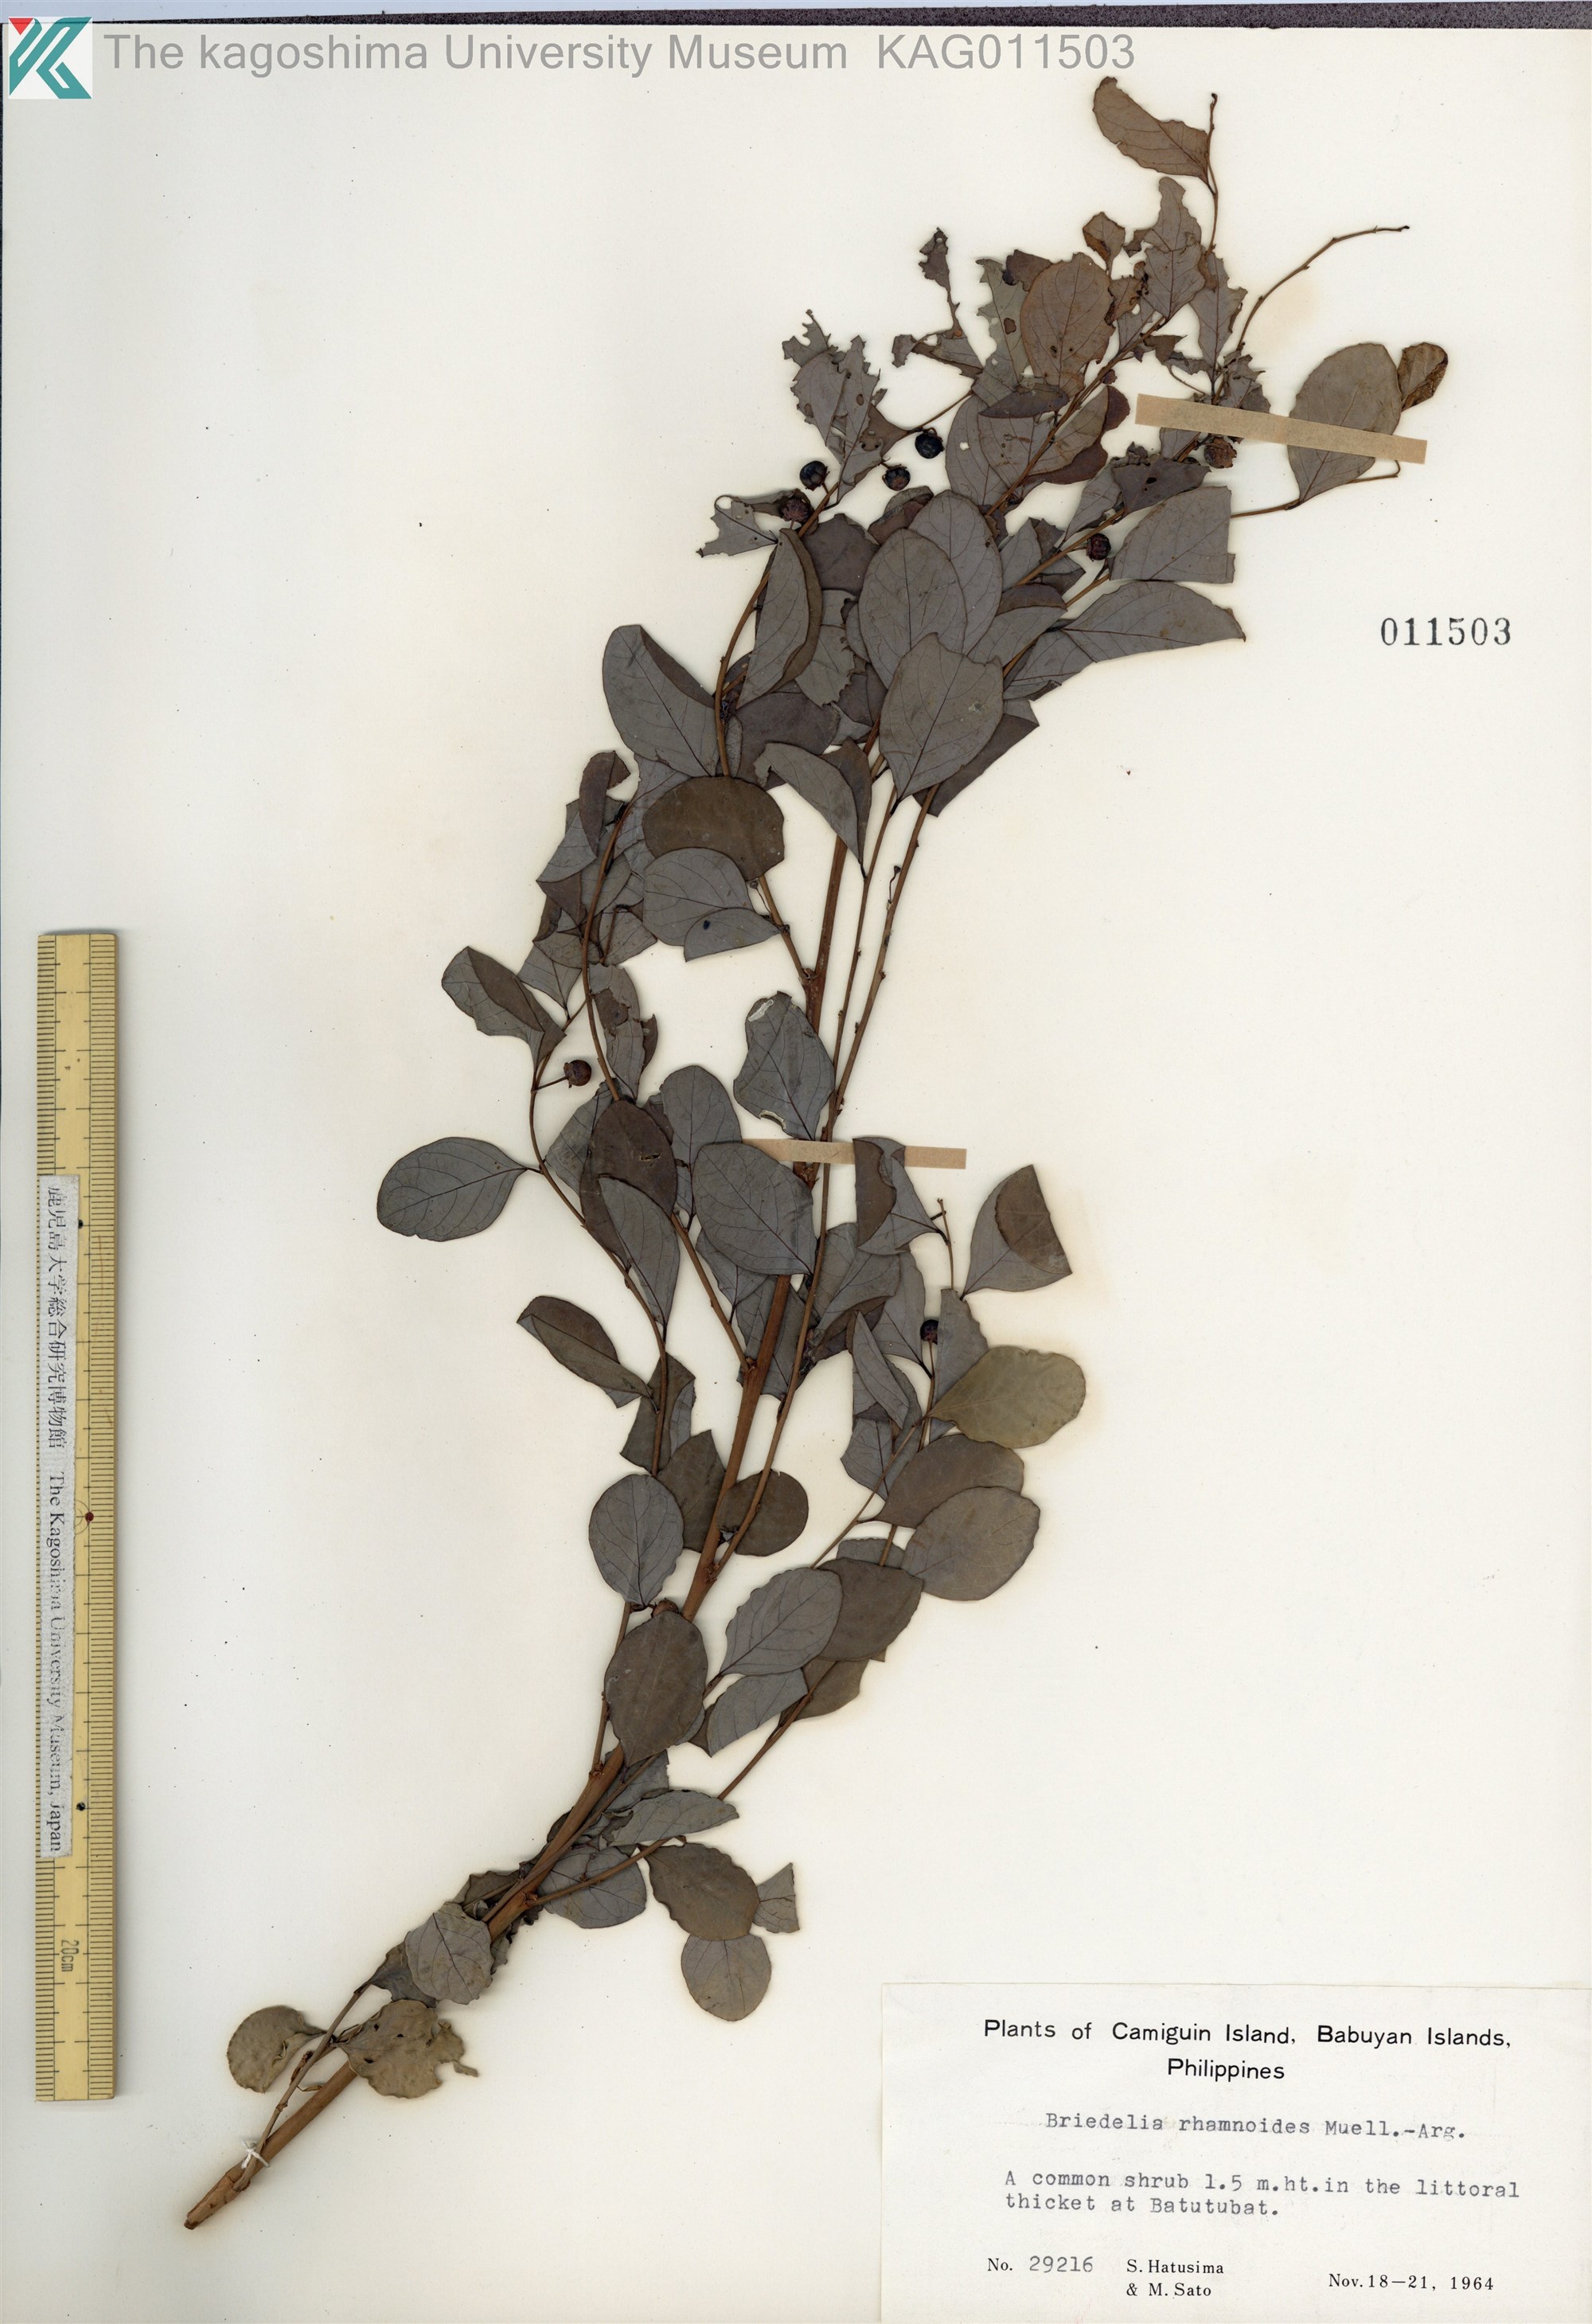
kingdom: Plantae
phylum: Tracheophyta
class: Magnoliopsida
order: Malpighiales
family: Phyllanthaceae
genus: Breynia
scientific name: Breynia vitis-idaea
